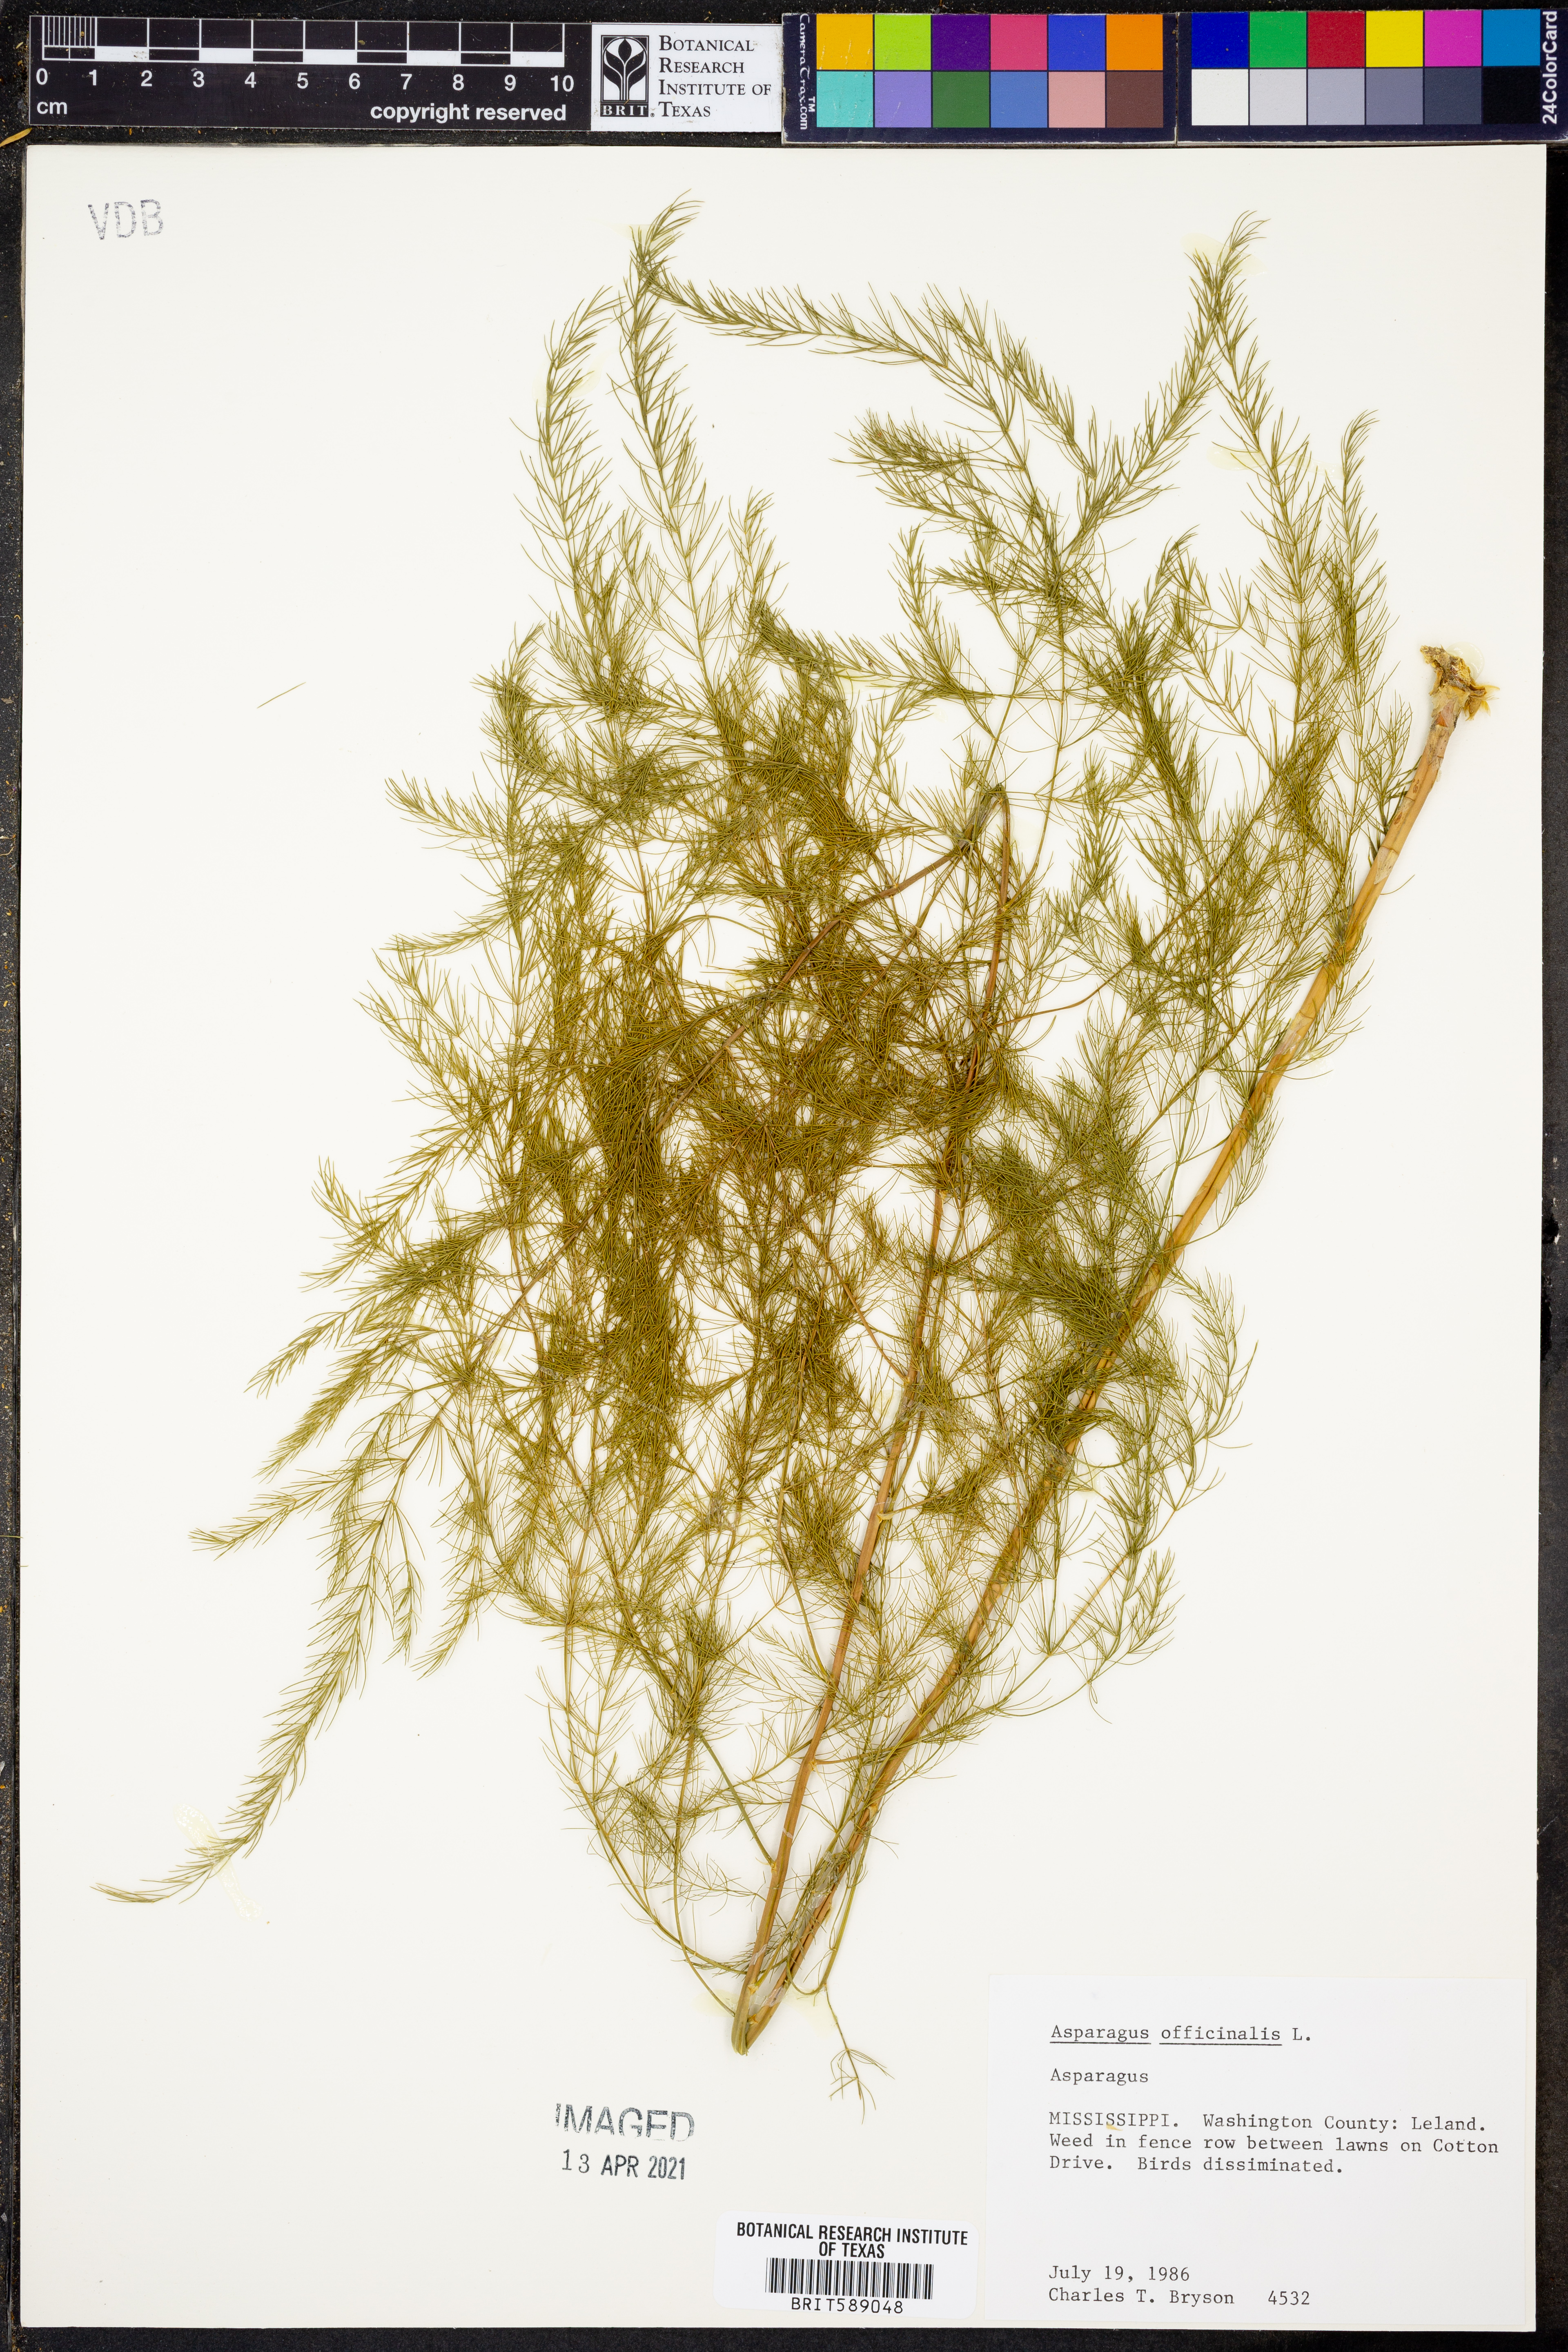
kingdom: Plantae
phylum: Tracheophyta
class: Liliopsida
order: Asparagales
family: Asparagaceae
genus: Asparagus
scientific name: Asparagus officinalis
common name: Garden asparagus
